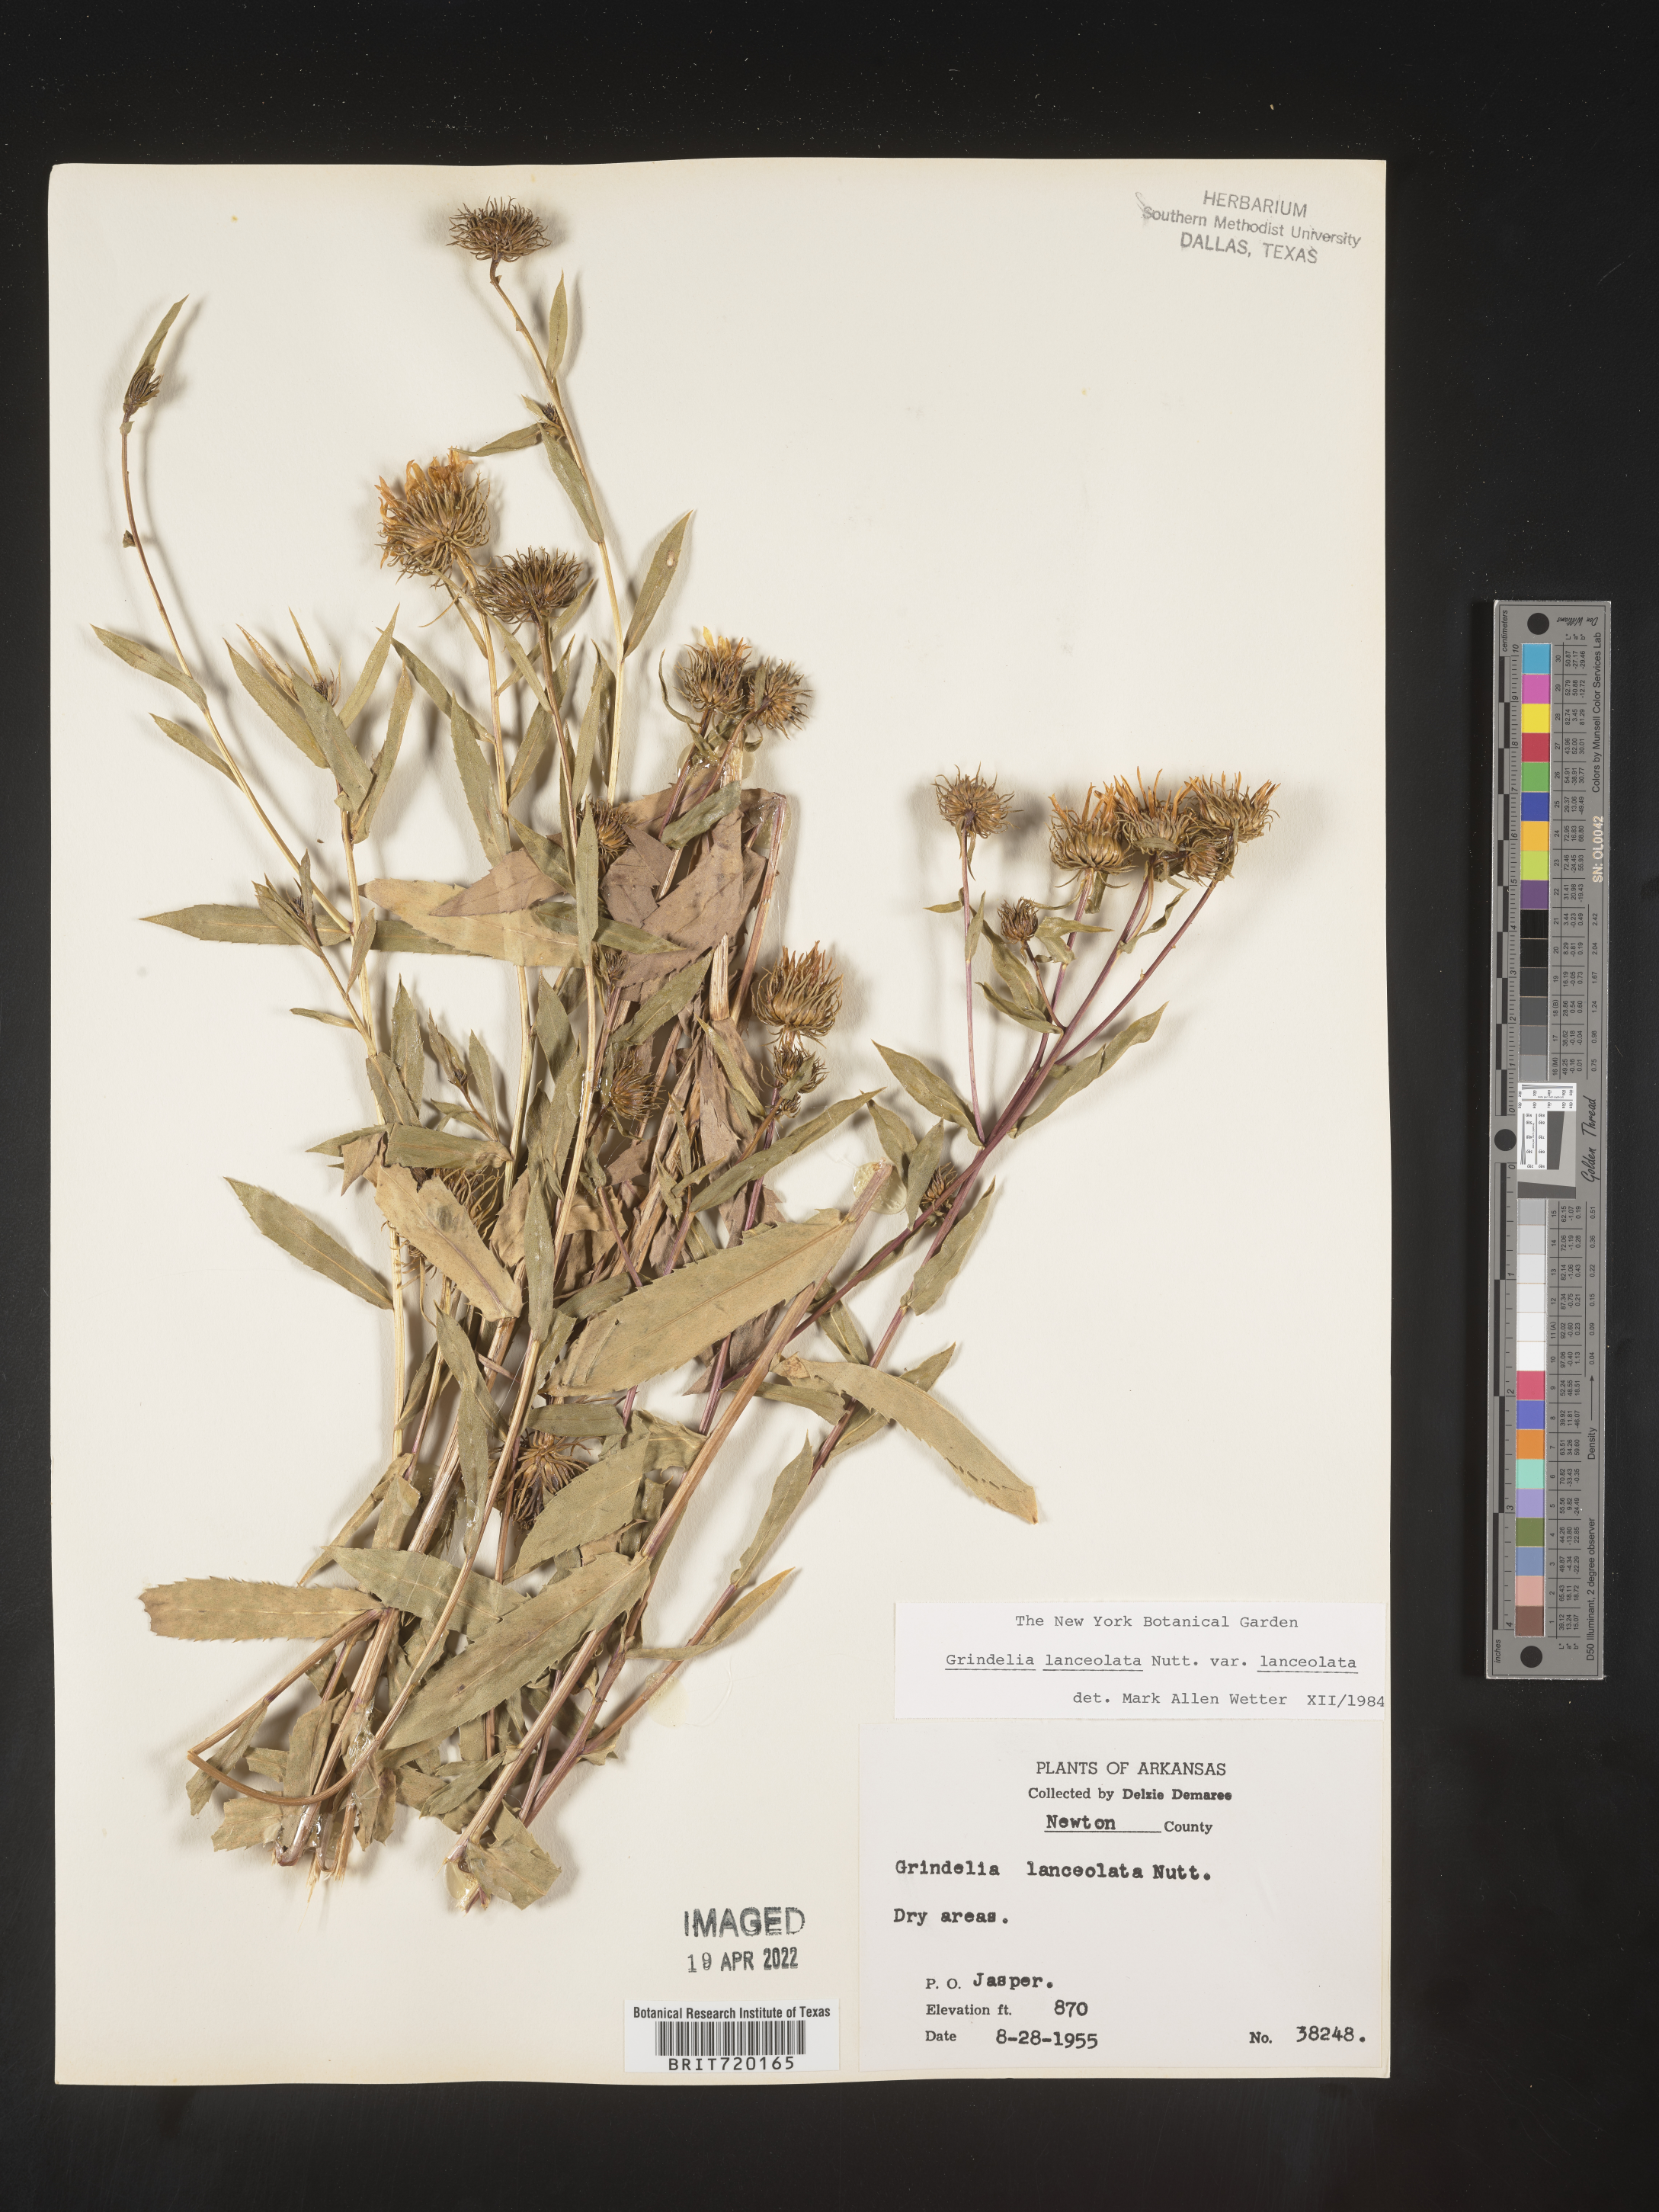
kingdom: Plantae
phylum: Tracheophyta
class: Magnoliopsida
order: Asterales
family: Asteraceae
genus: Grindelia
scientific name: Grindelia lanceolata
